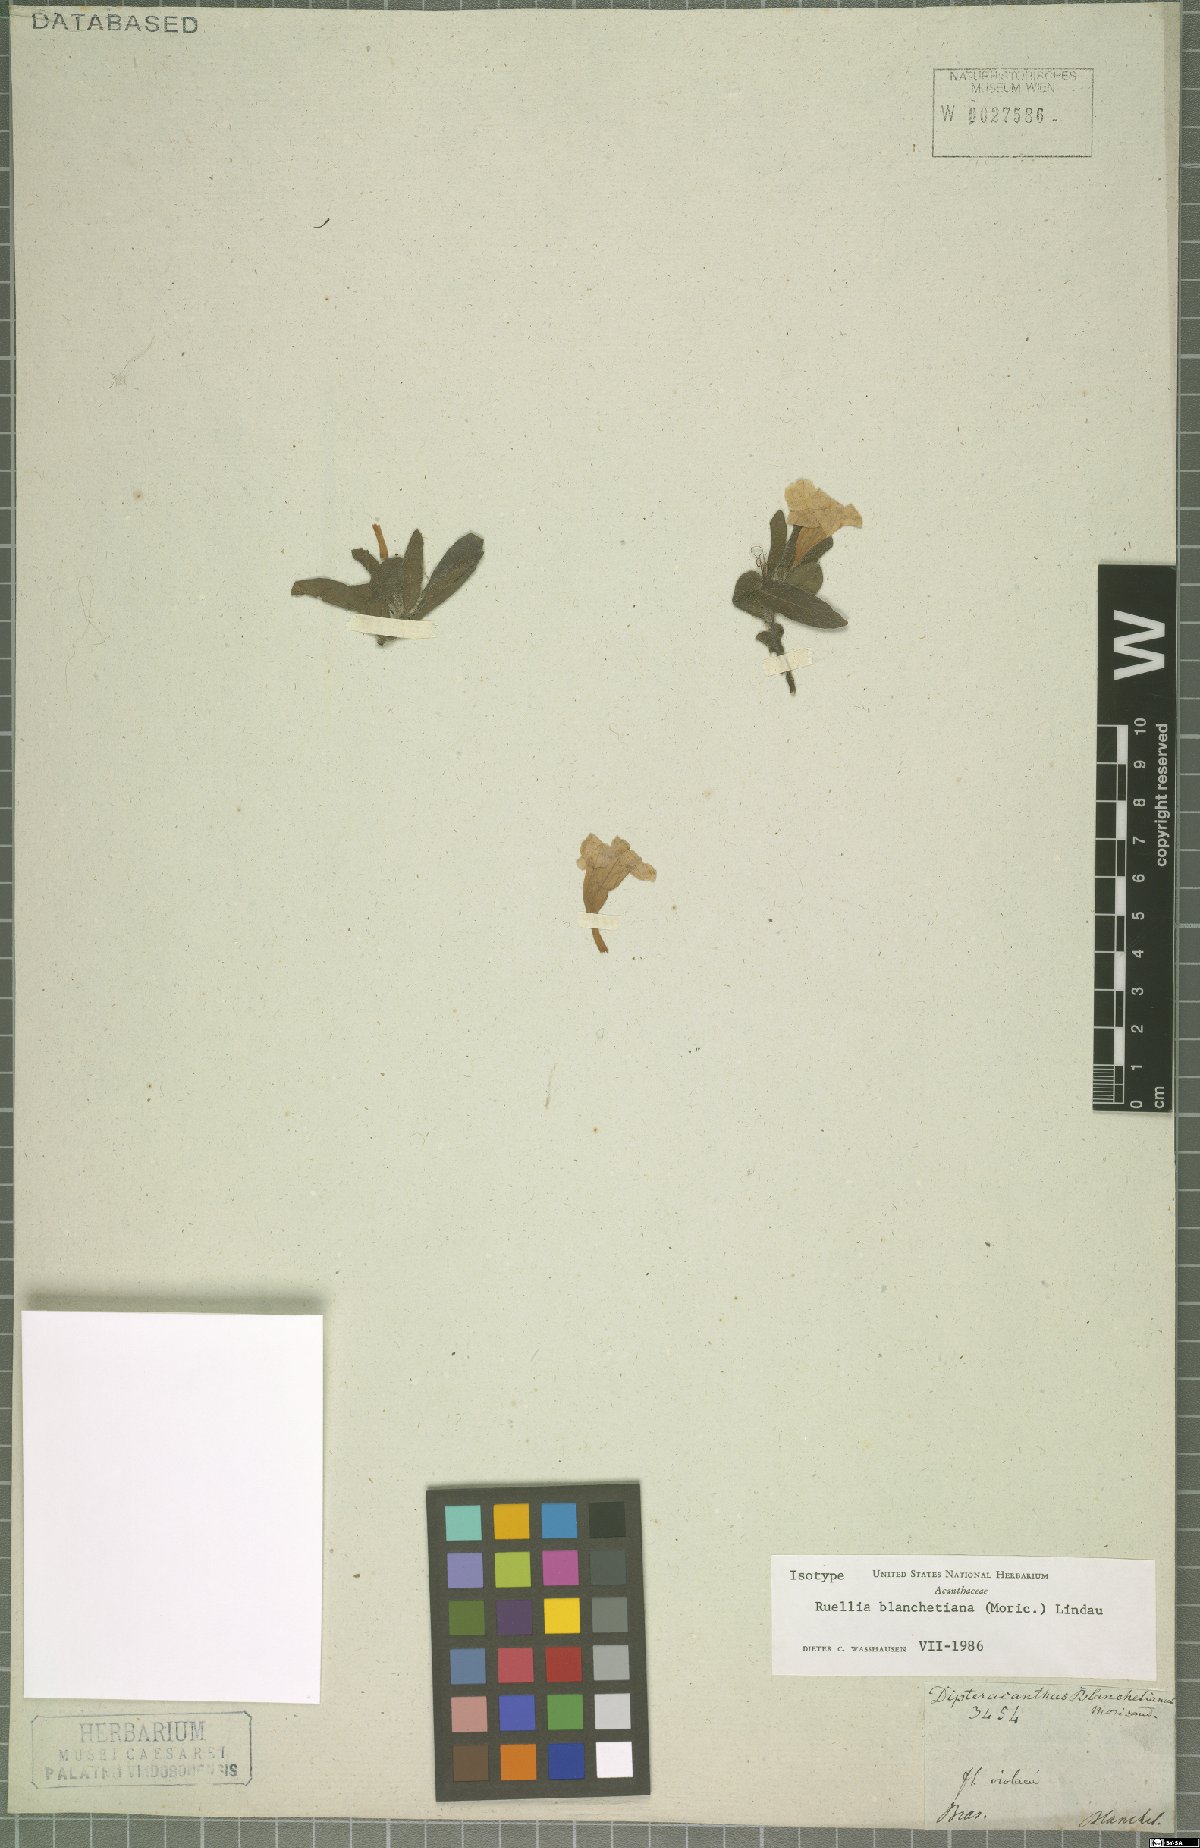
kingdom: Plantae
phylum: Tracheophyta
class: Magnoliopsida
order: Lamiales
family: Acanthaceae
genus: Ruellia
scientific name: Ruellia blanchetiana
